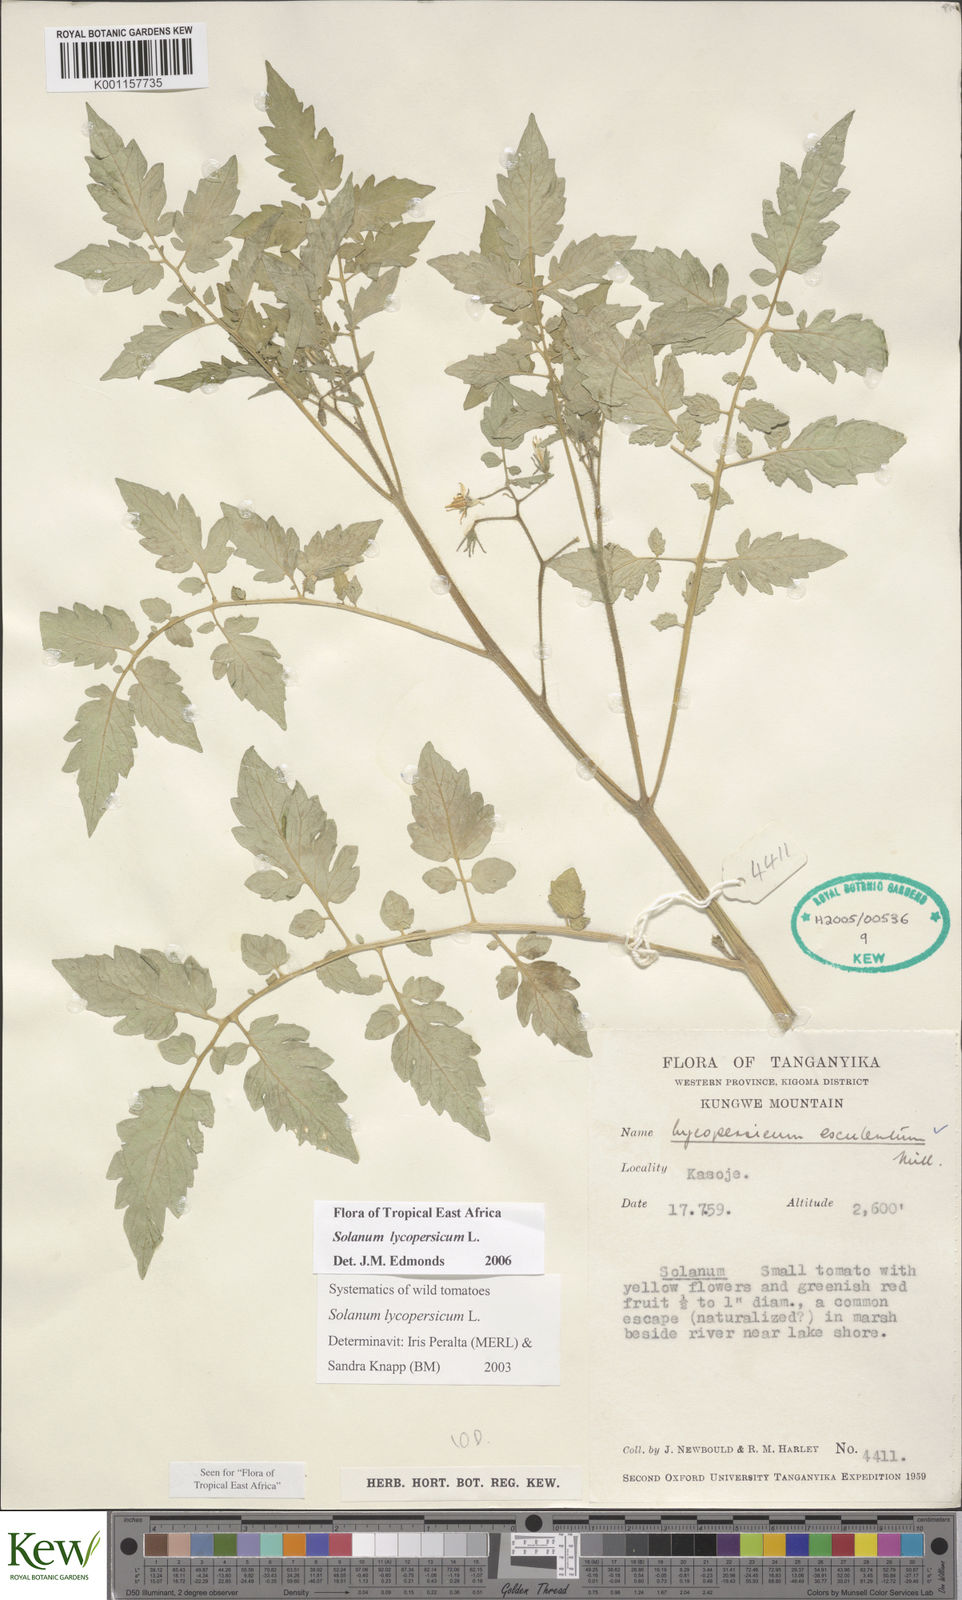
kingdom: Plantae
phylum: Tracheophyta
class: Magnoliopsida
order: Solanales
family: Solanaceae
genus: Solanum
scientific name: Solanum lycopersicum
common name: Garden tomato
